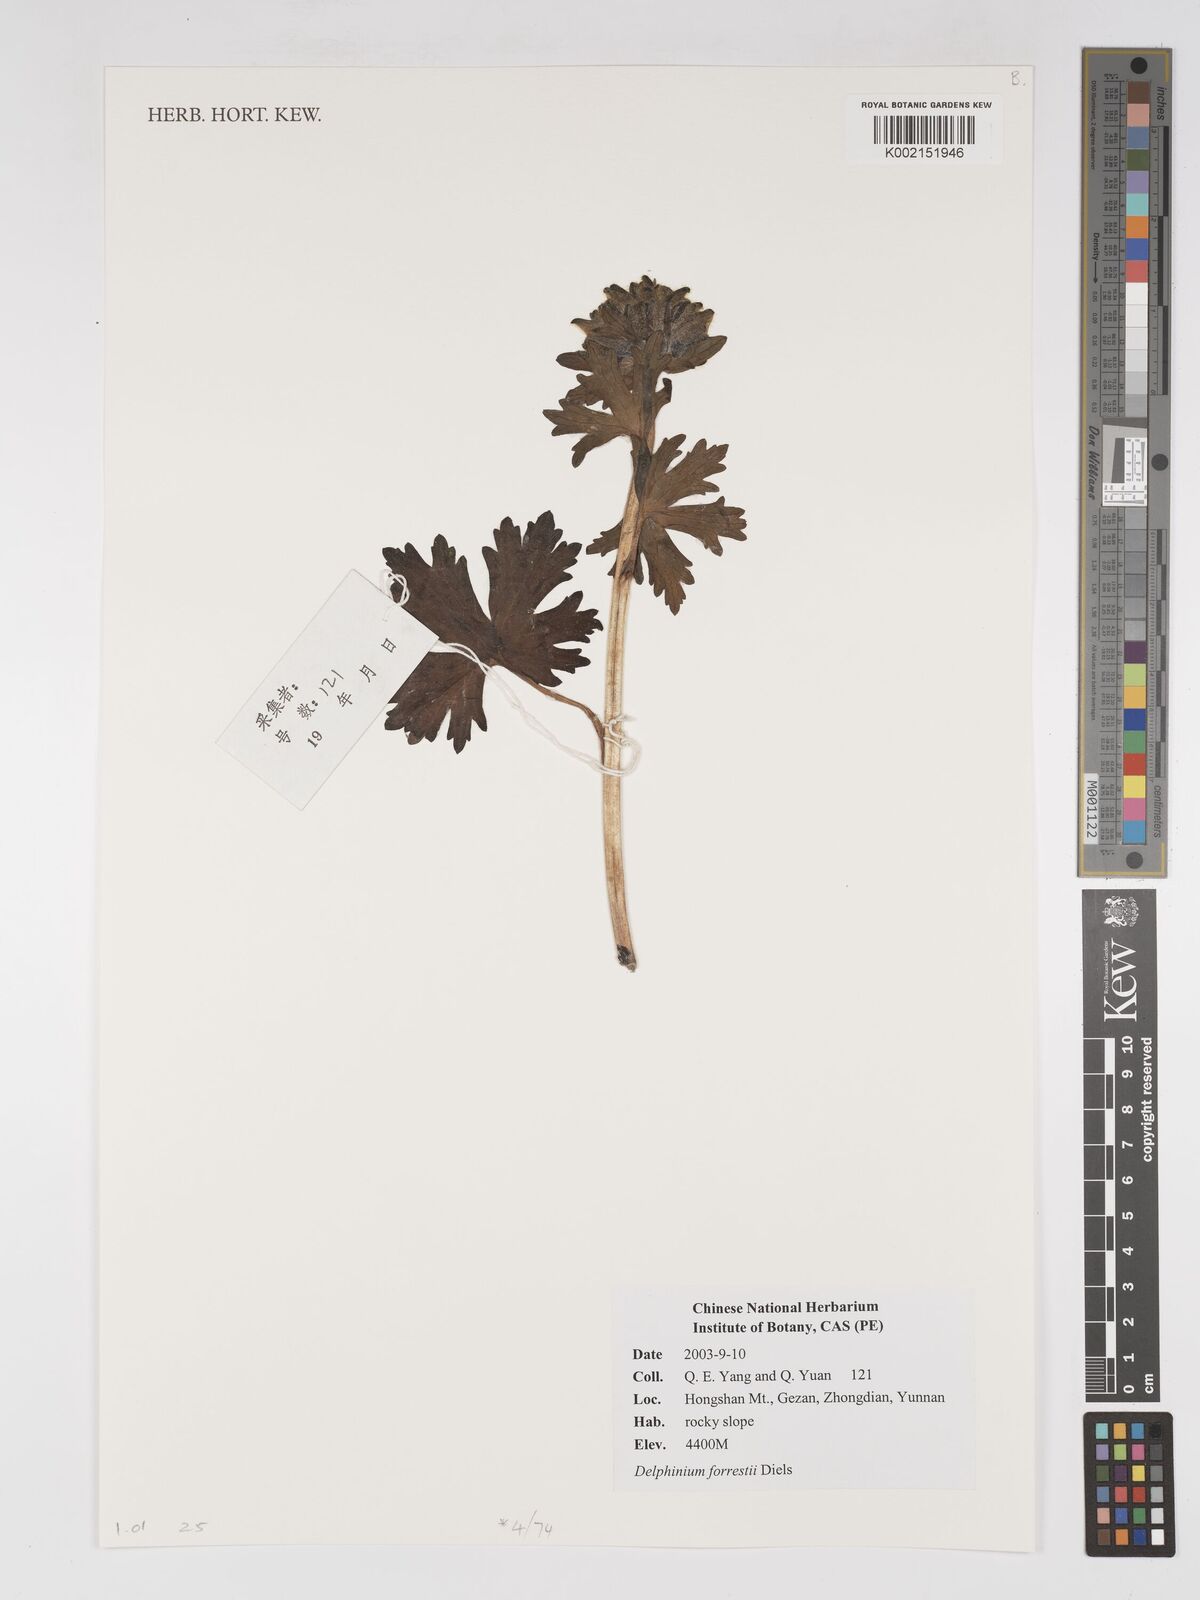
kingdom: Plantae
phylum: Tracheophyta
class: Magnoliopsida
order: Ranunculales
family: Ranunculaceae
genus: Delphinium
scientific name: Delphinium trichophorum
